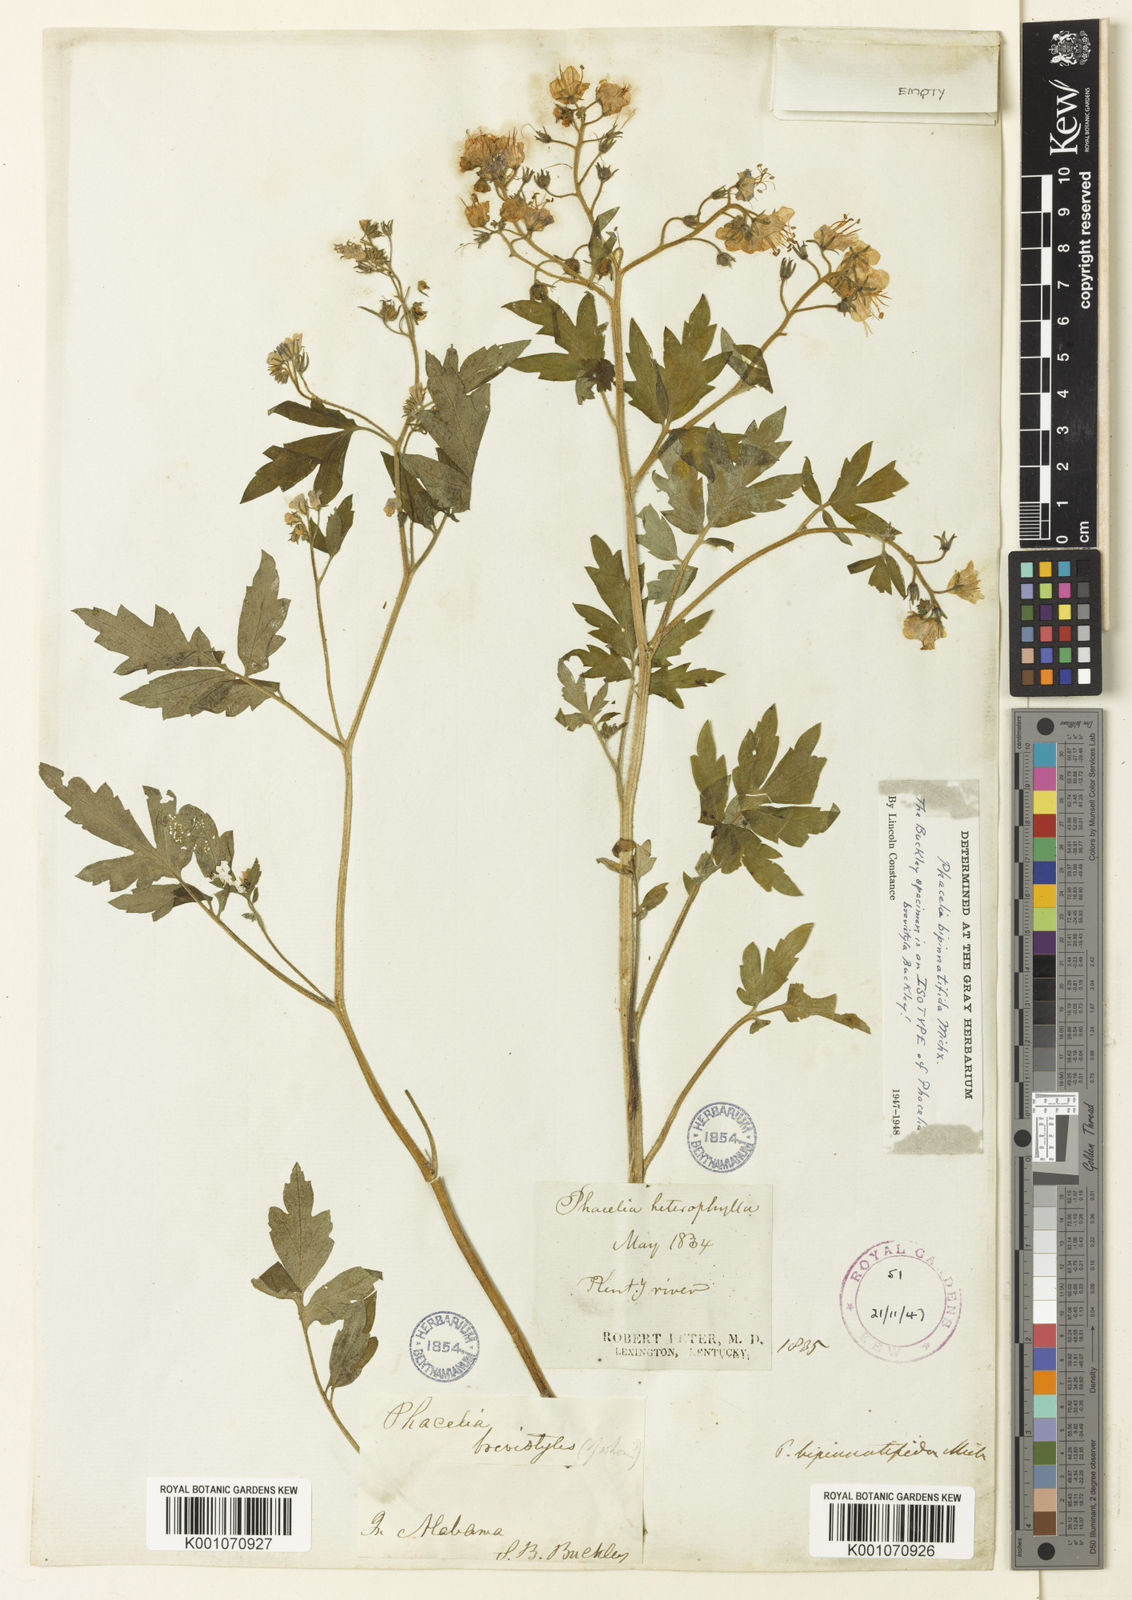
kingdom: Plantae
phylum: Tracheophyta
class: Magnoliopsida
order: Boraginales
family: Hydrophyllaceae
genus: Phacelia
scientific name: Phacelia bipinnatifida
